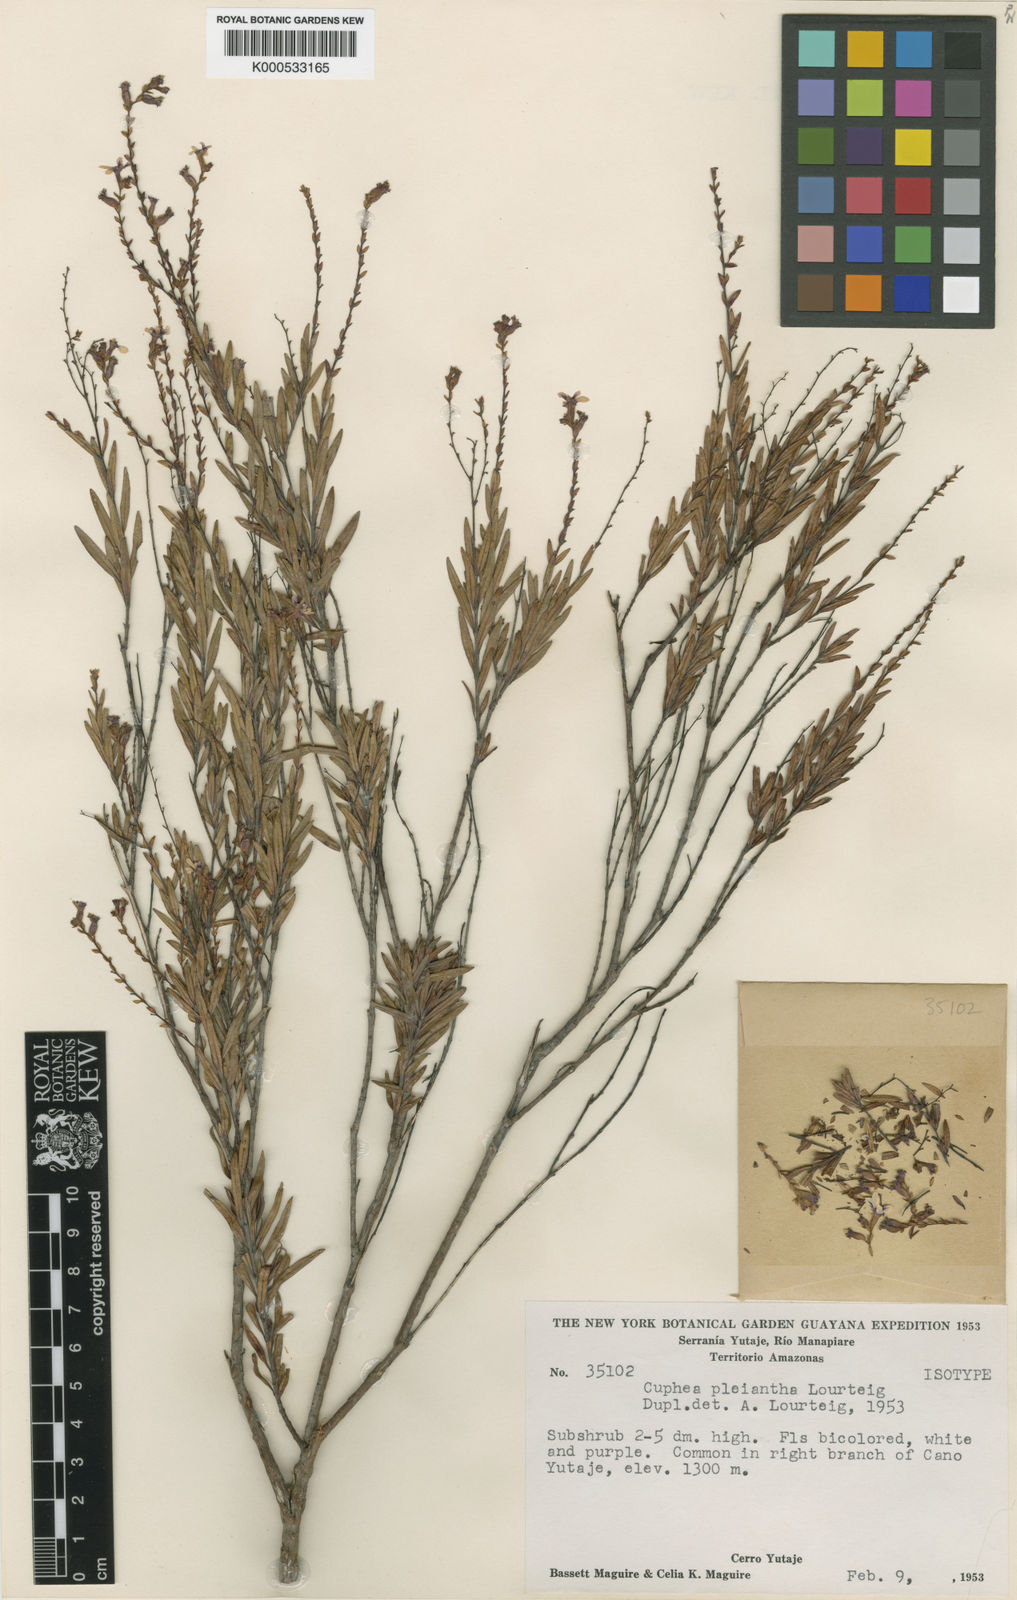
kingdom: Plantae
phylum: Tracheophyta
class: Magnoliopsida
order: Myrtales
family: Lythraceae
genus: Cuphea
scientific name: Cuphea pleiantha
